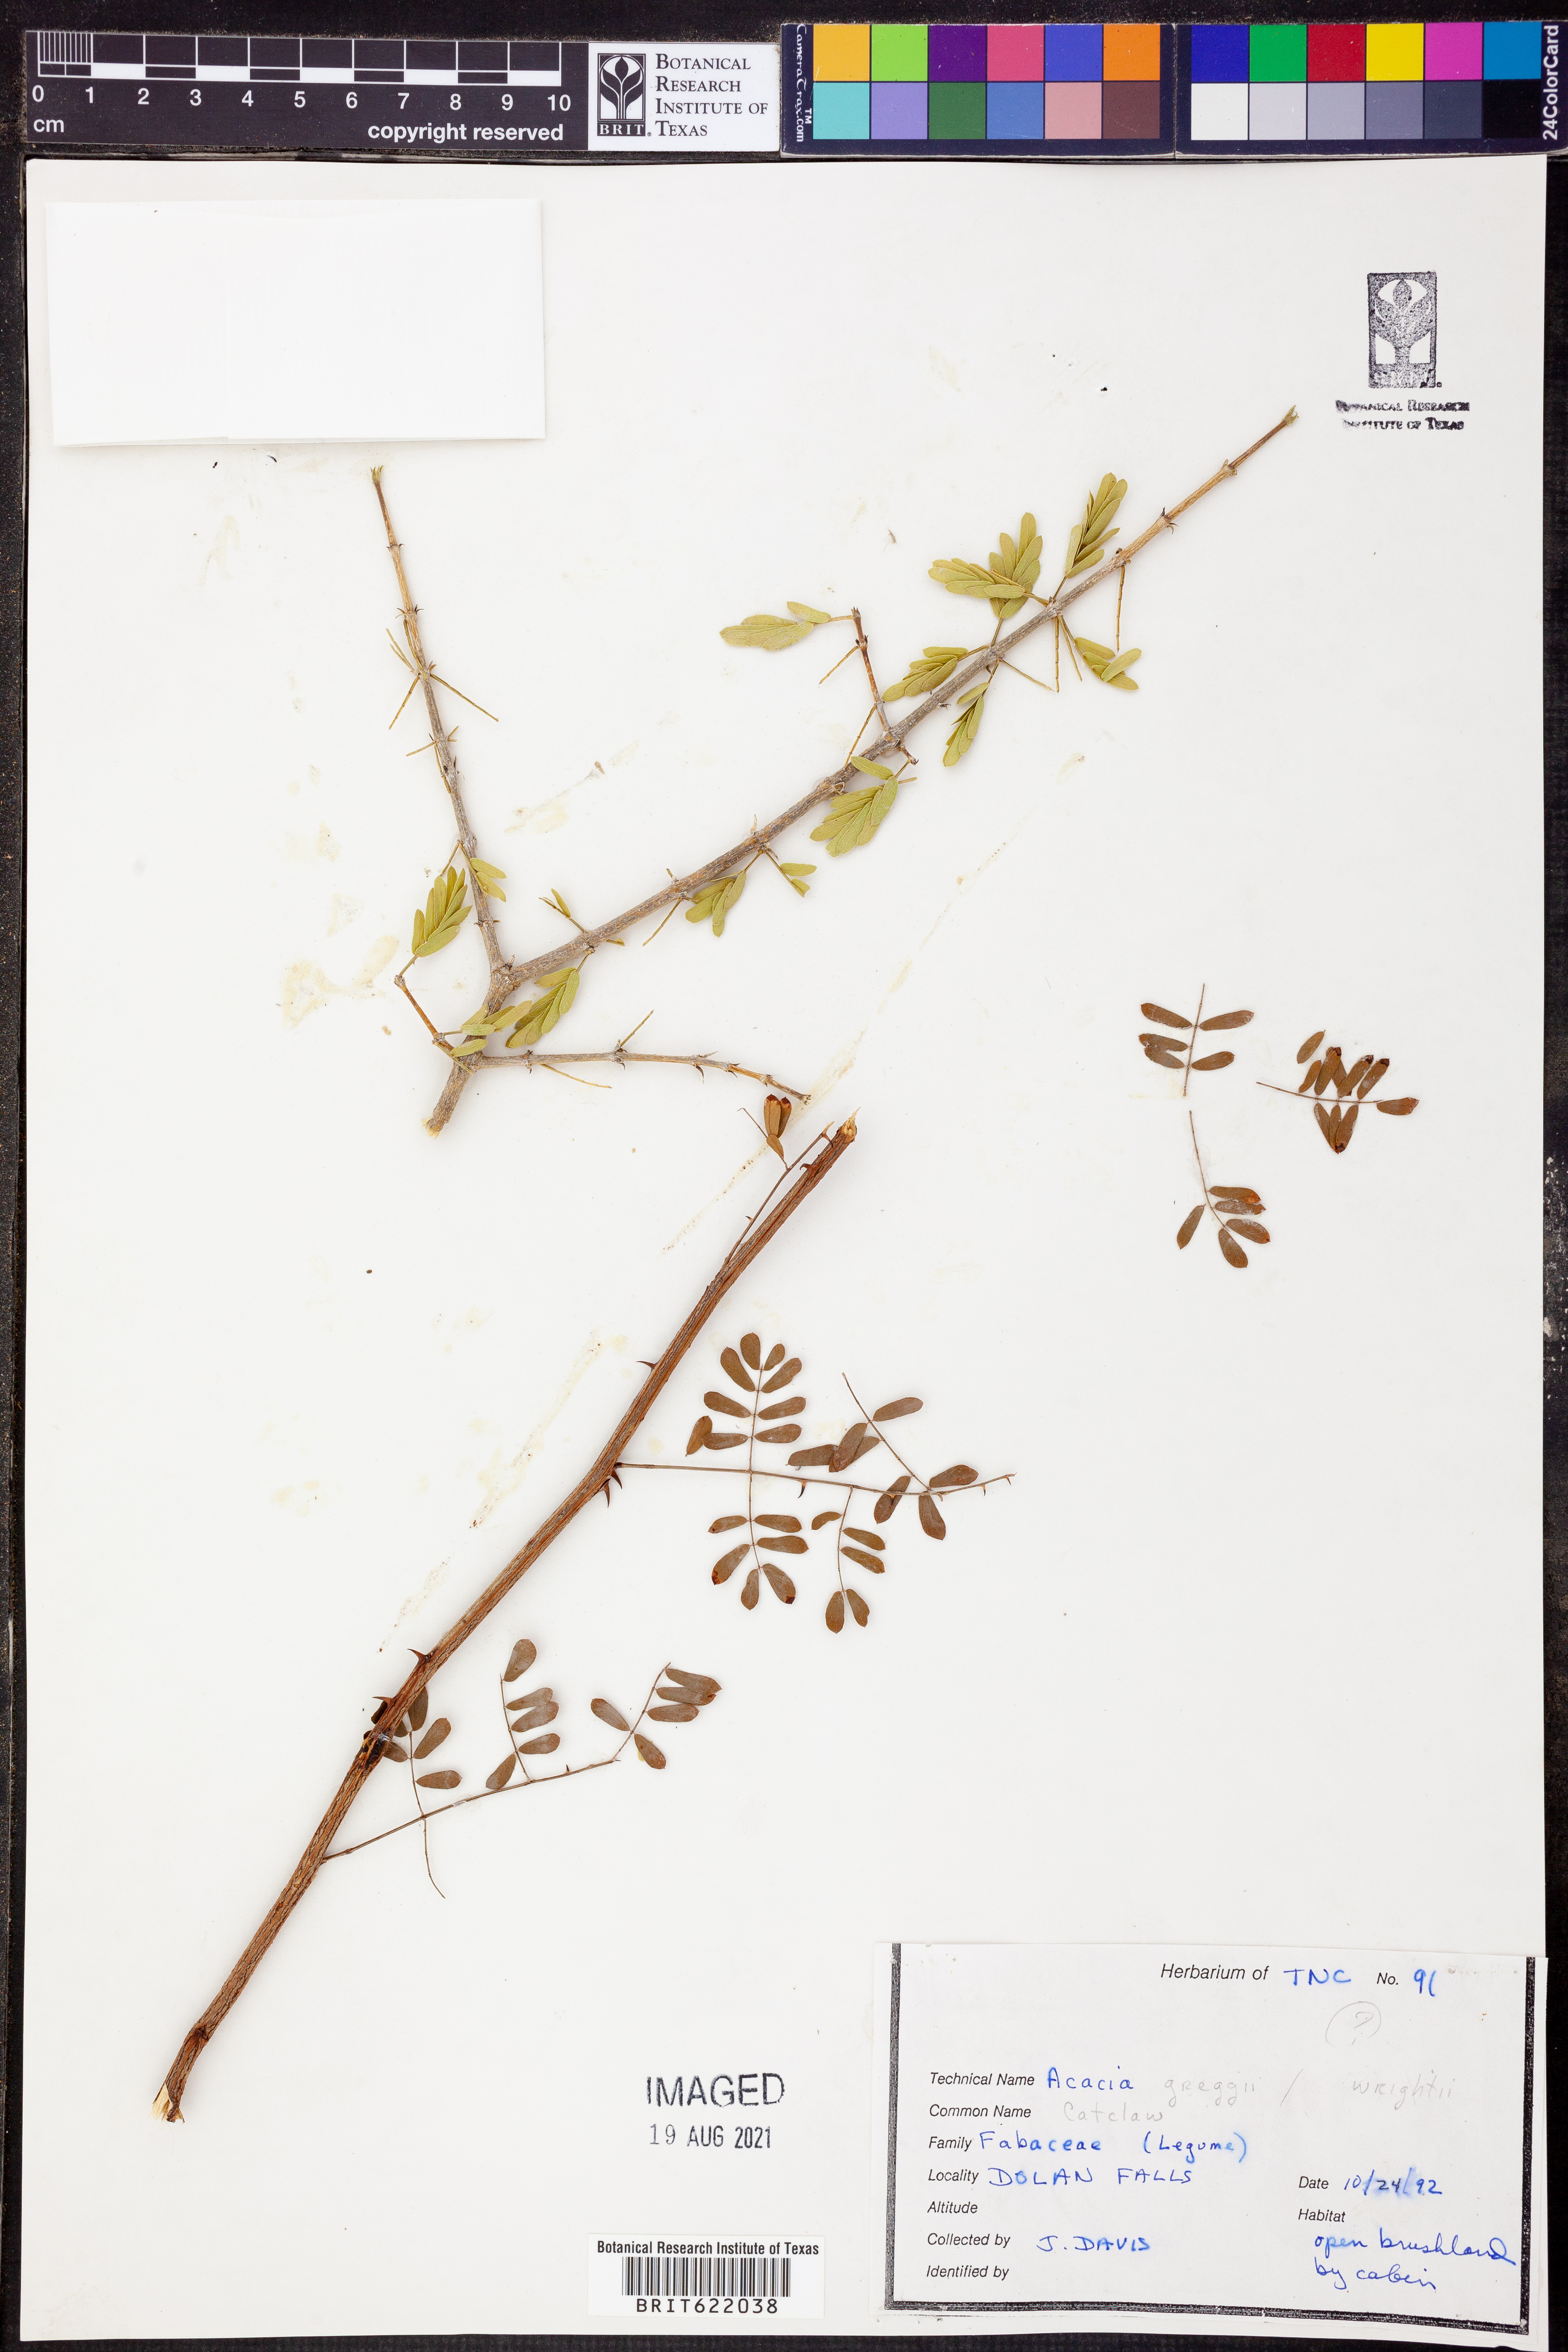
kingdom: Plantae
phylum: Tracheophyta
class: Magnoliopsida
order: Fabales
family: Fabaceae
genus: Acacia
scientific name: Acacia
